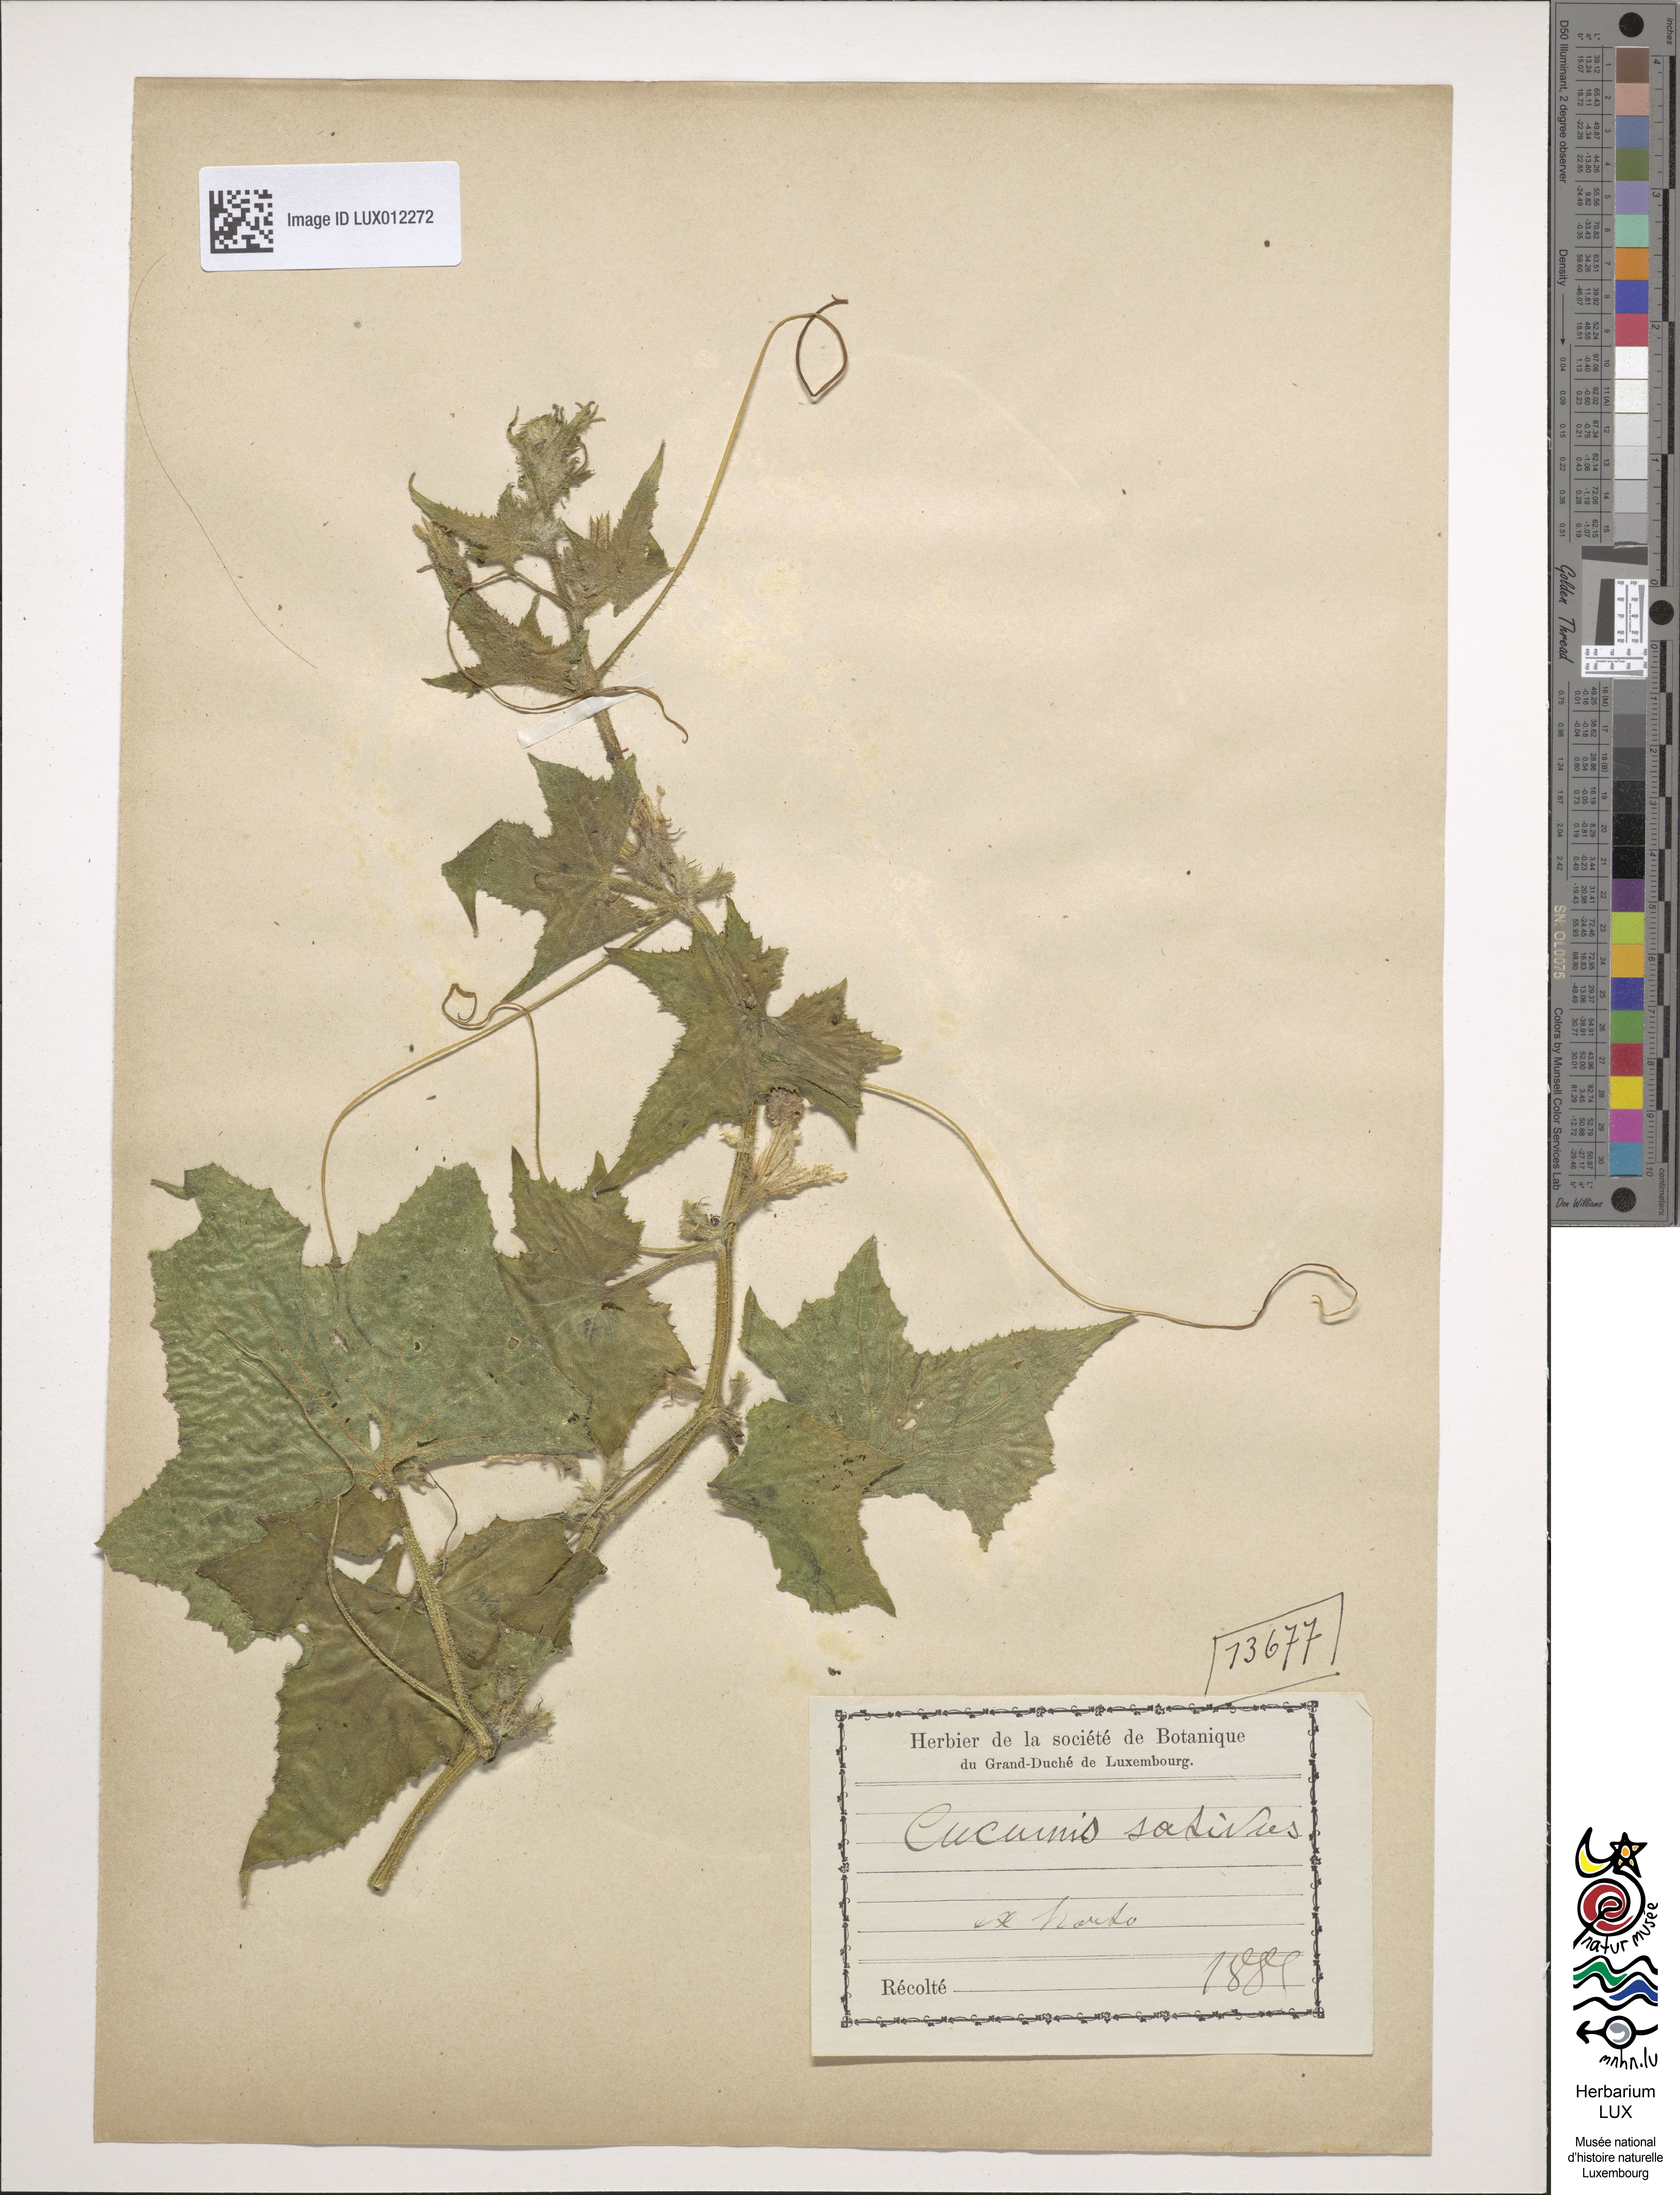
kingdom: Plantae
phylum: Tracheophyta
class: Magnoliopsida
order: Cucurbitales
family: Cucurbitaceae
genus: Cucumis
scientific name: Cucumis sativus
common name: Cucumber
